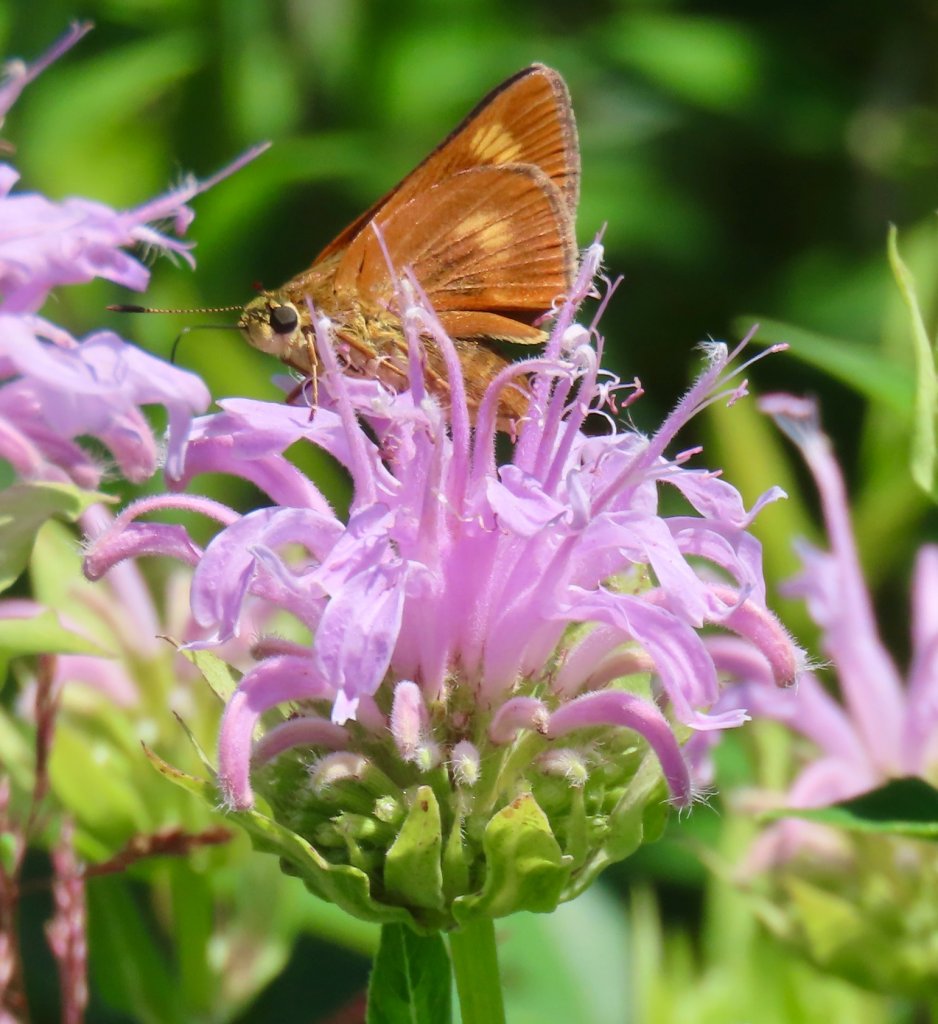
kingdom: Animalia
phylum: Arthropoda
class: Insecta
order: Lepidoptera
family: Hesperiidae
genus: Problema
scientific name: Problema byssus
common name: Byssus Skipper
